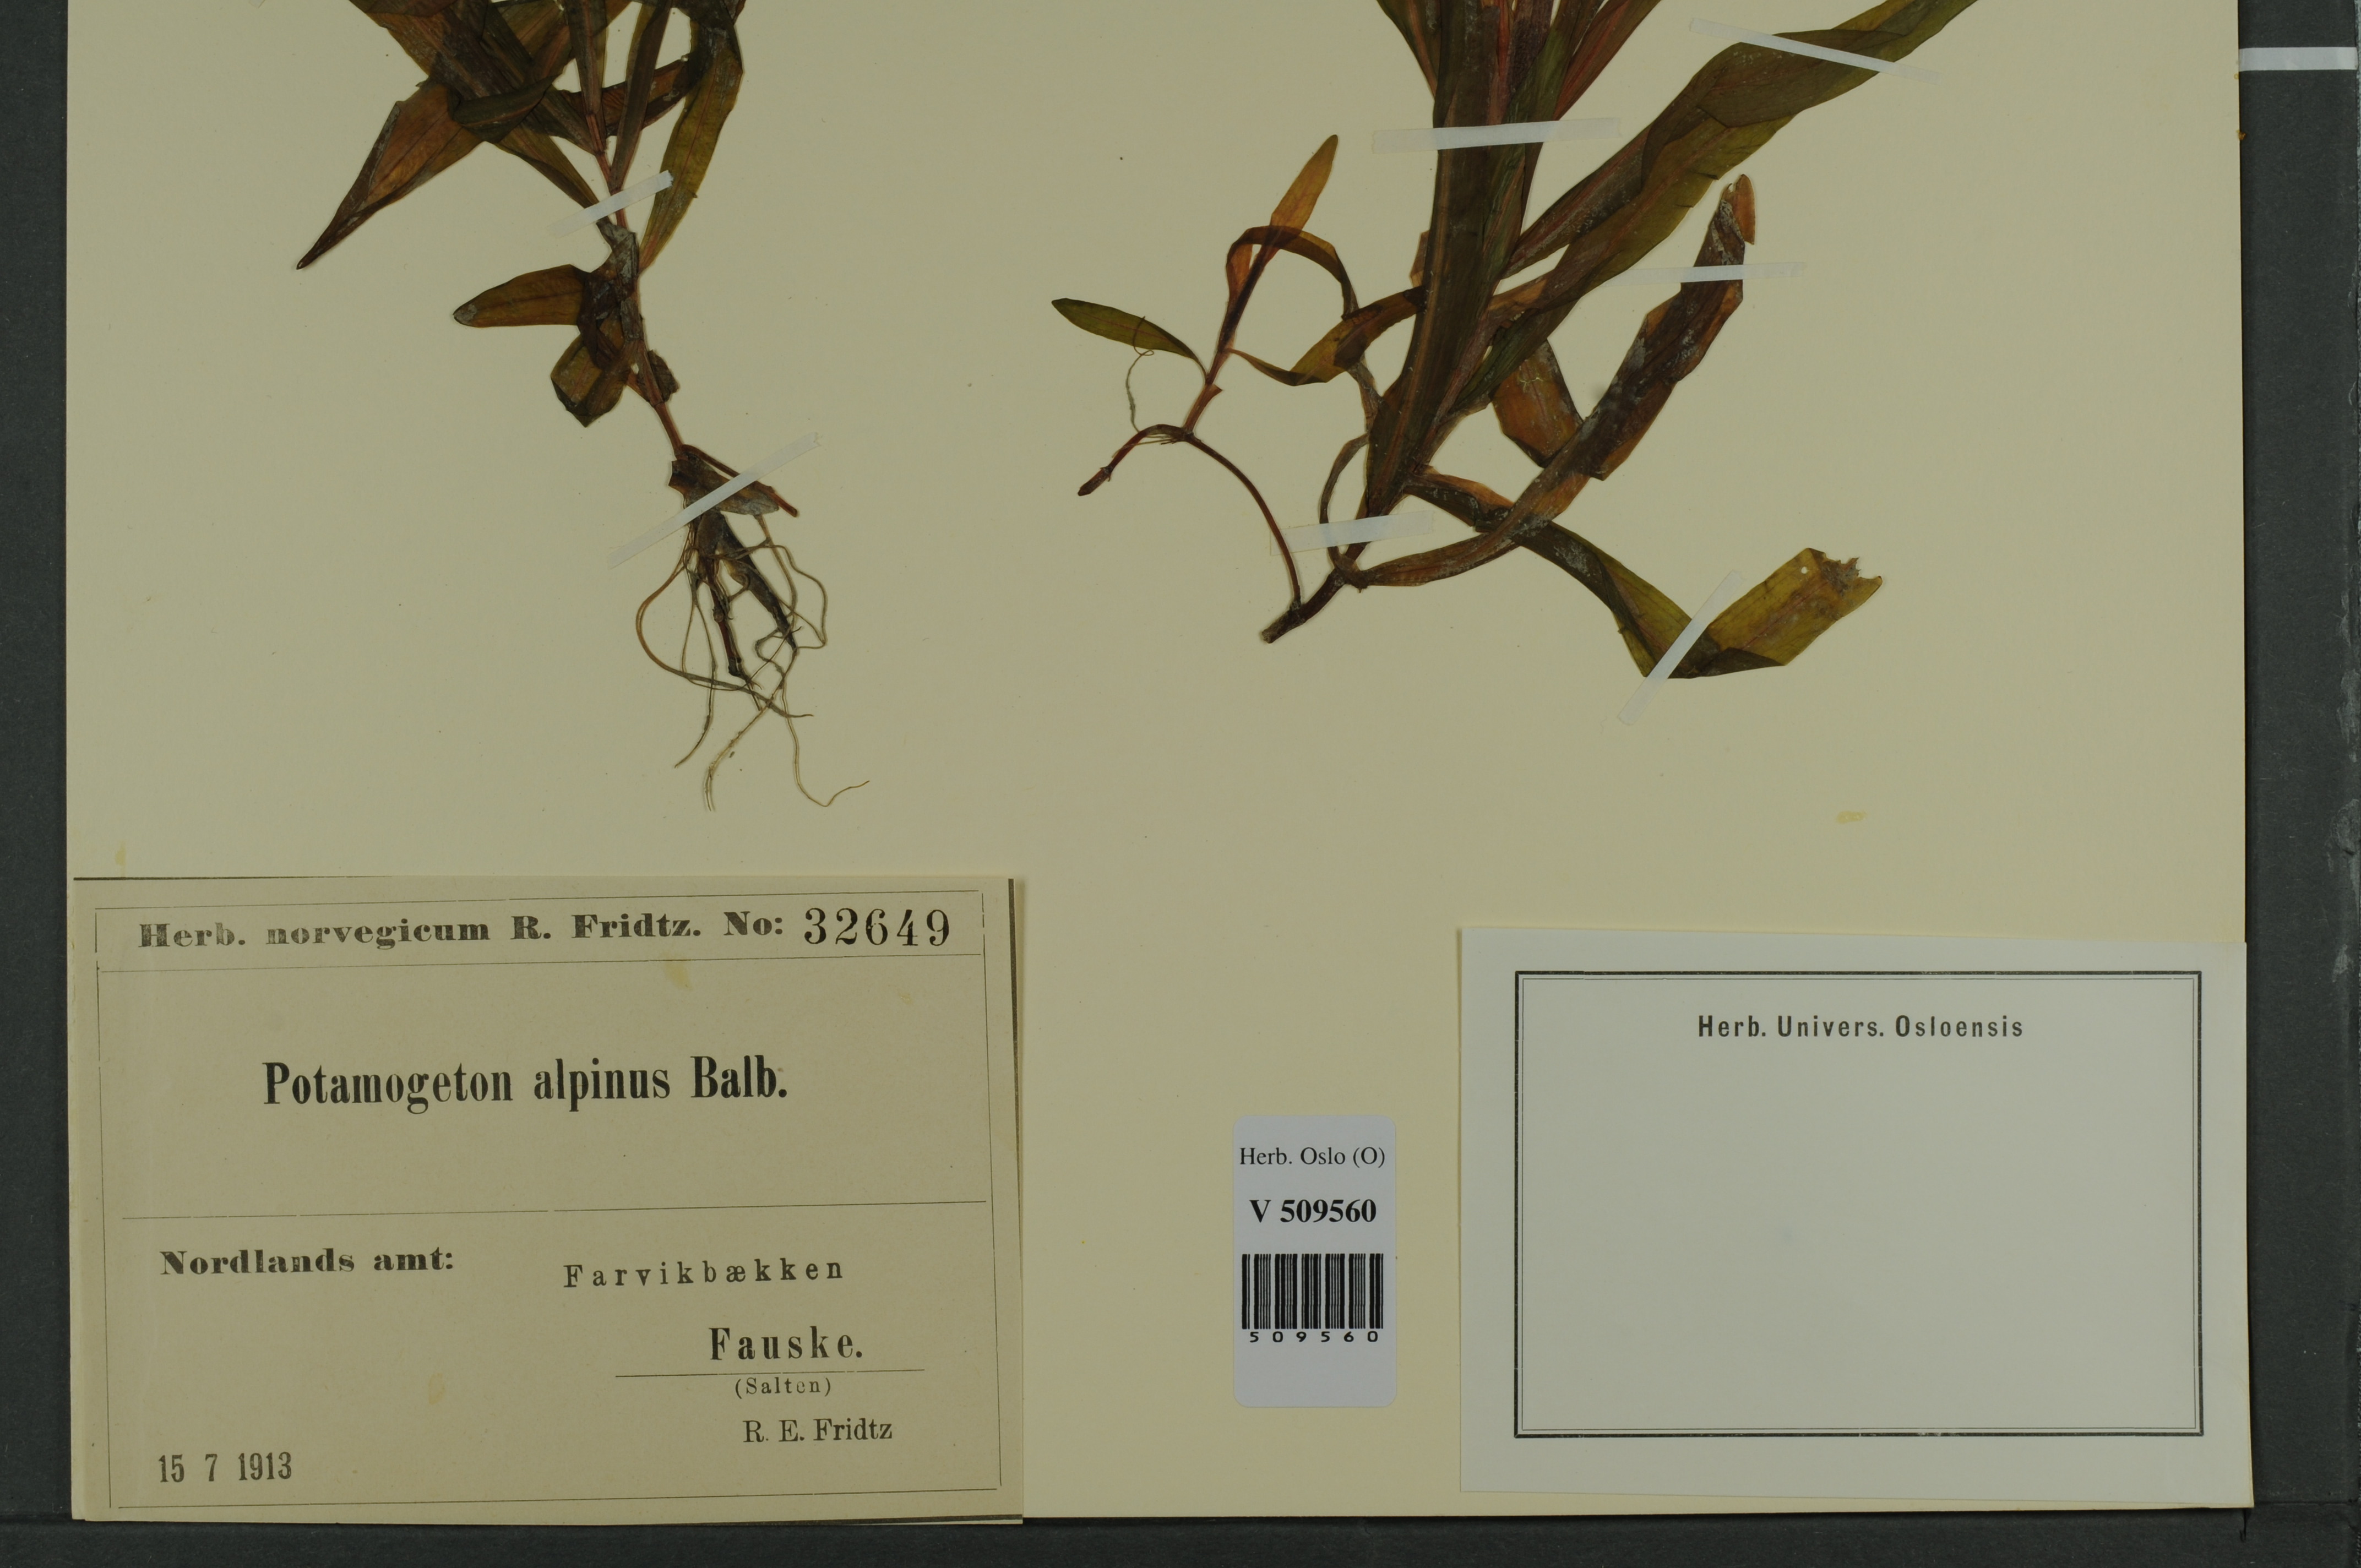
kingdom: Plantae
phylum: Tracheophyta
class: Liliopsida
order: Alismatales
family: Potamogetonaceae
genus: Potamogeton
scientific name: Potamogeton alpinus
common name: Red pondweed
